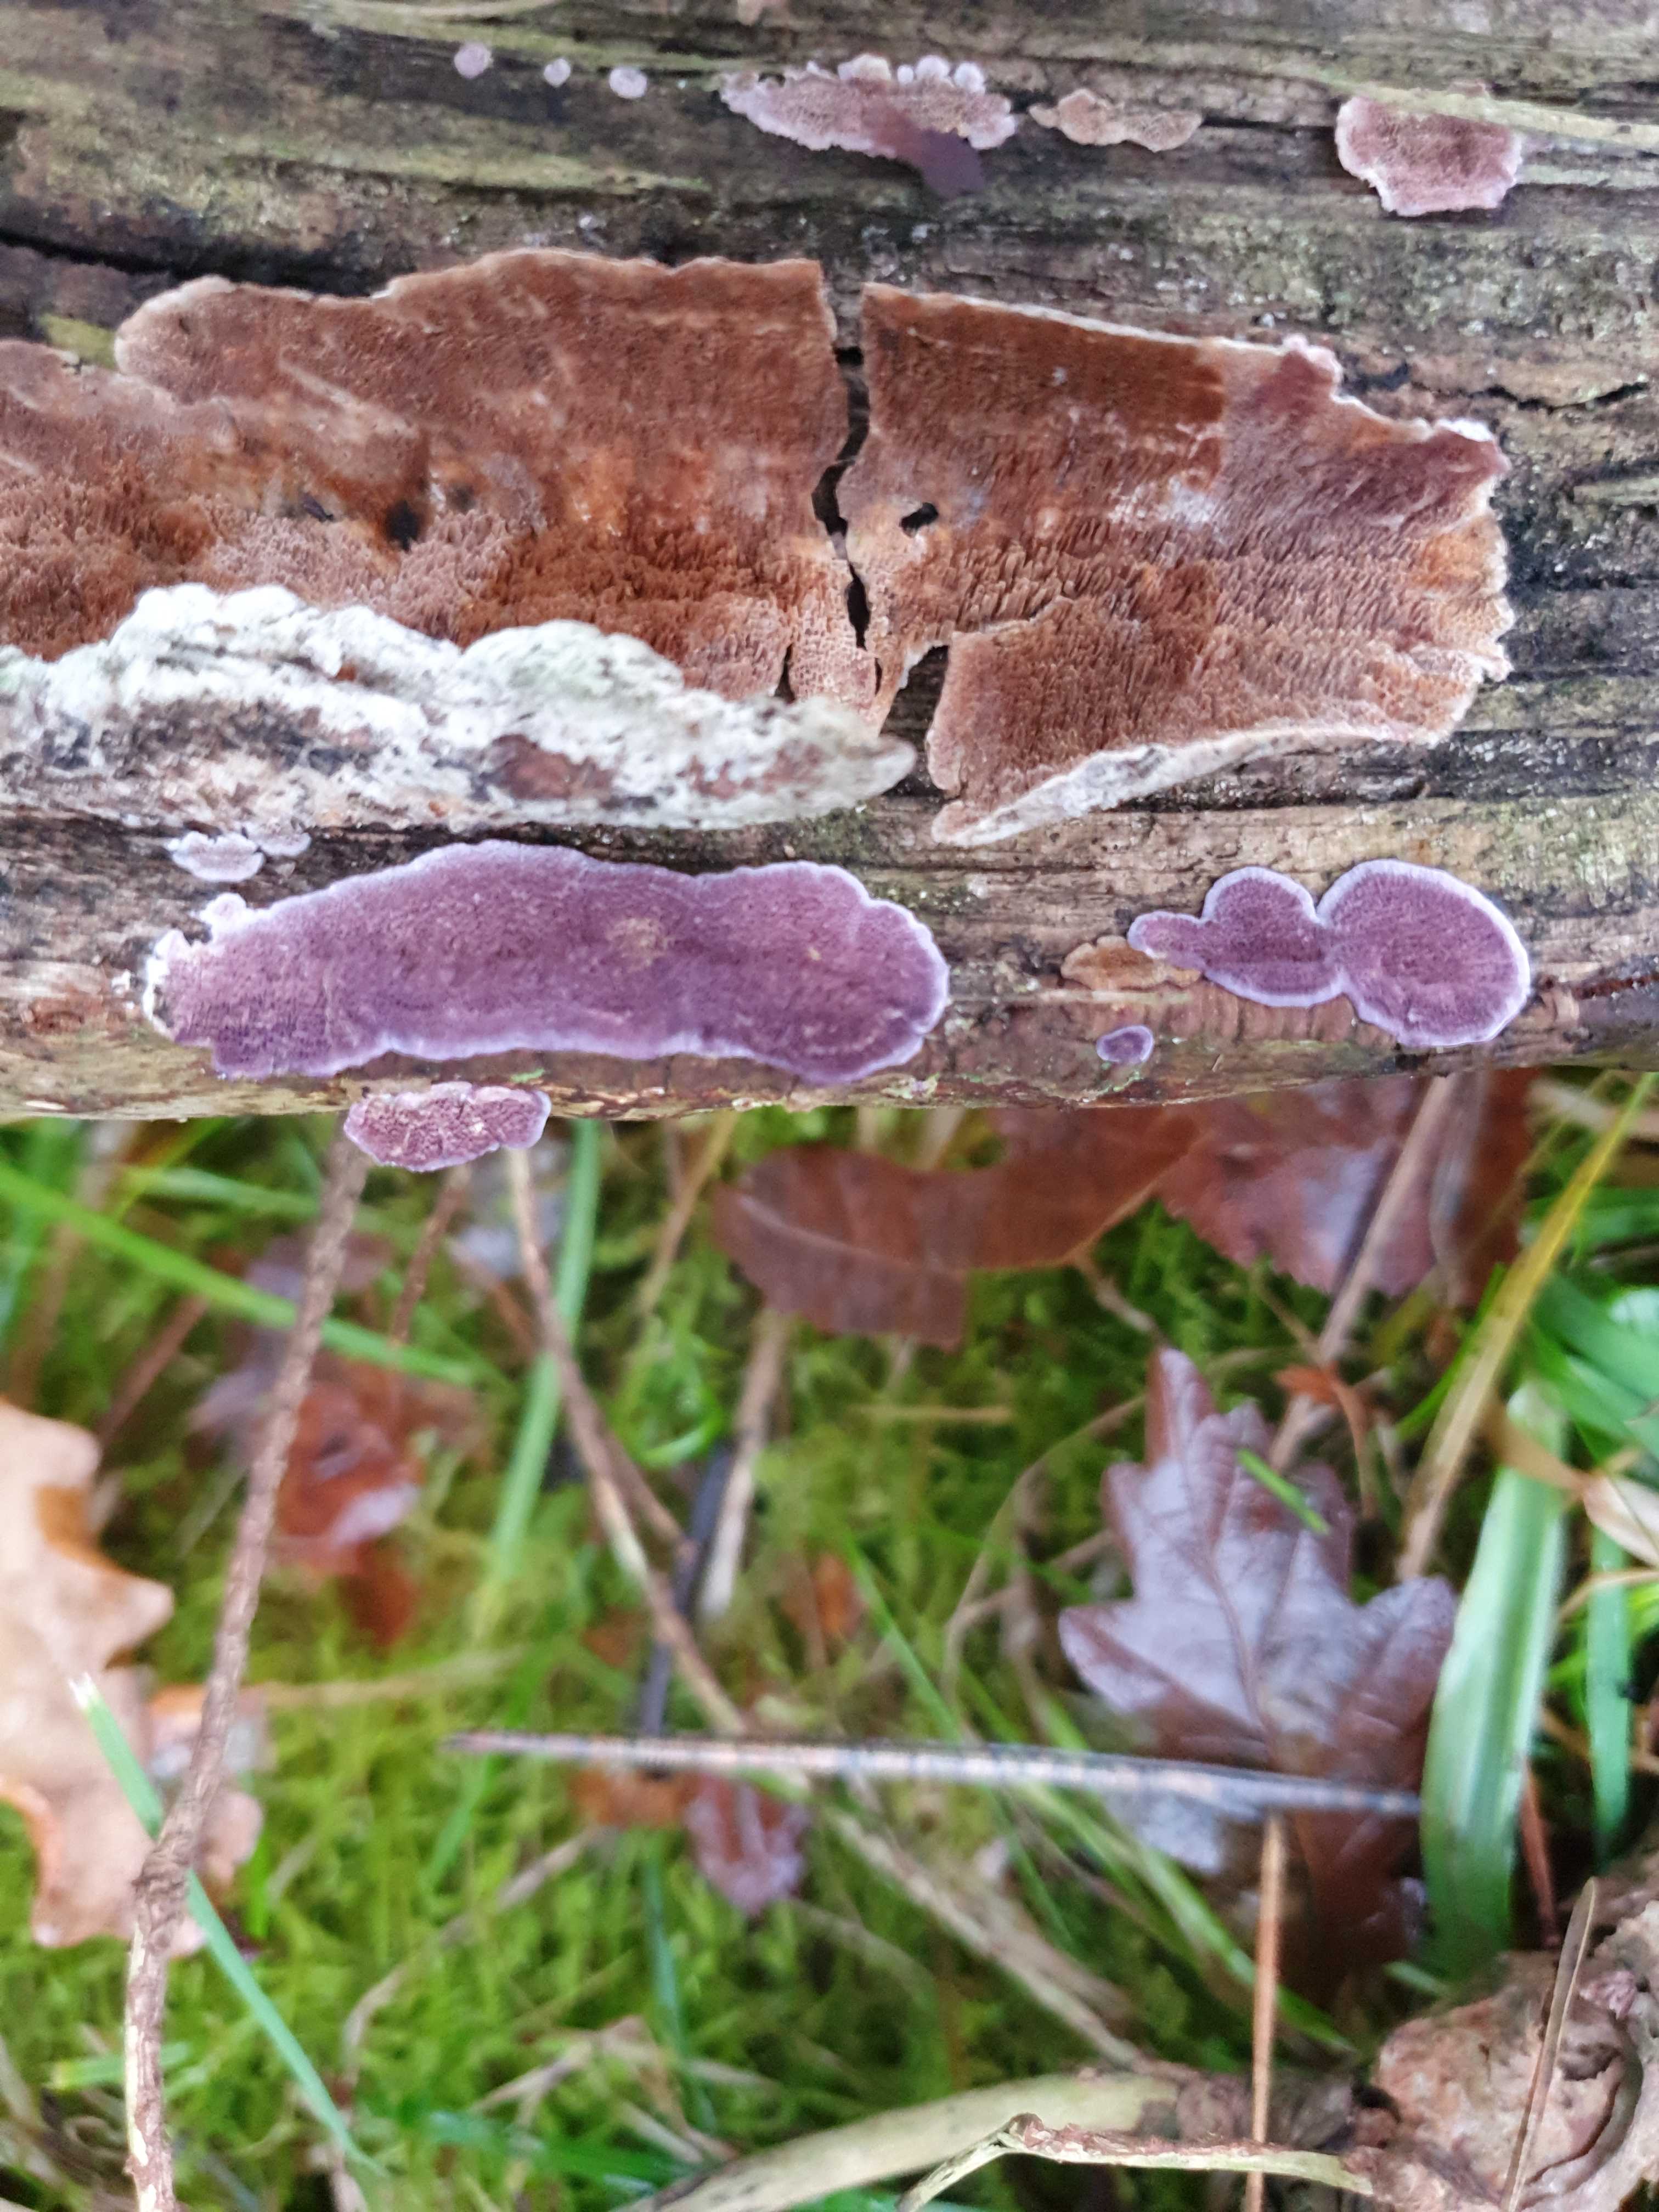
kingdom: Fungi
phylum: Basidiomycota
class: Agaricomycetes
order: Hymenochaetales
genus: Trichaptum
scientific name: Trichaptum abietinum
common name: almindelig violporesvamp
